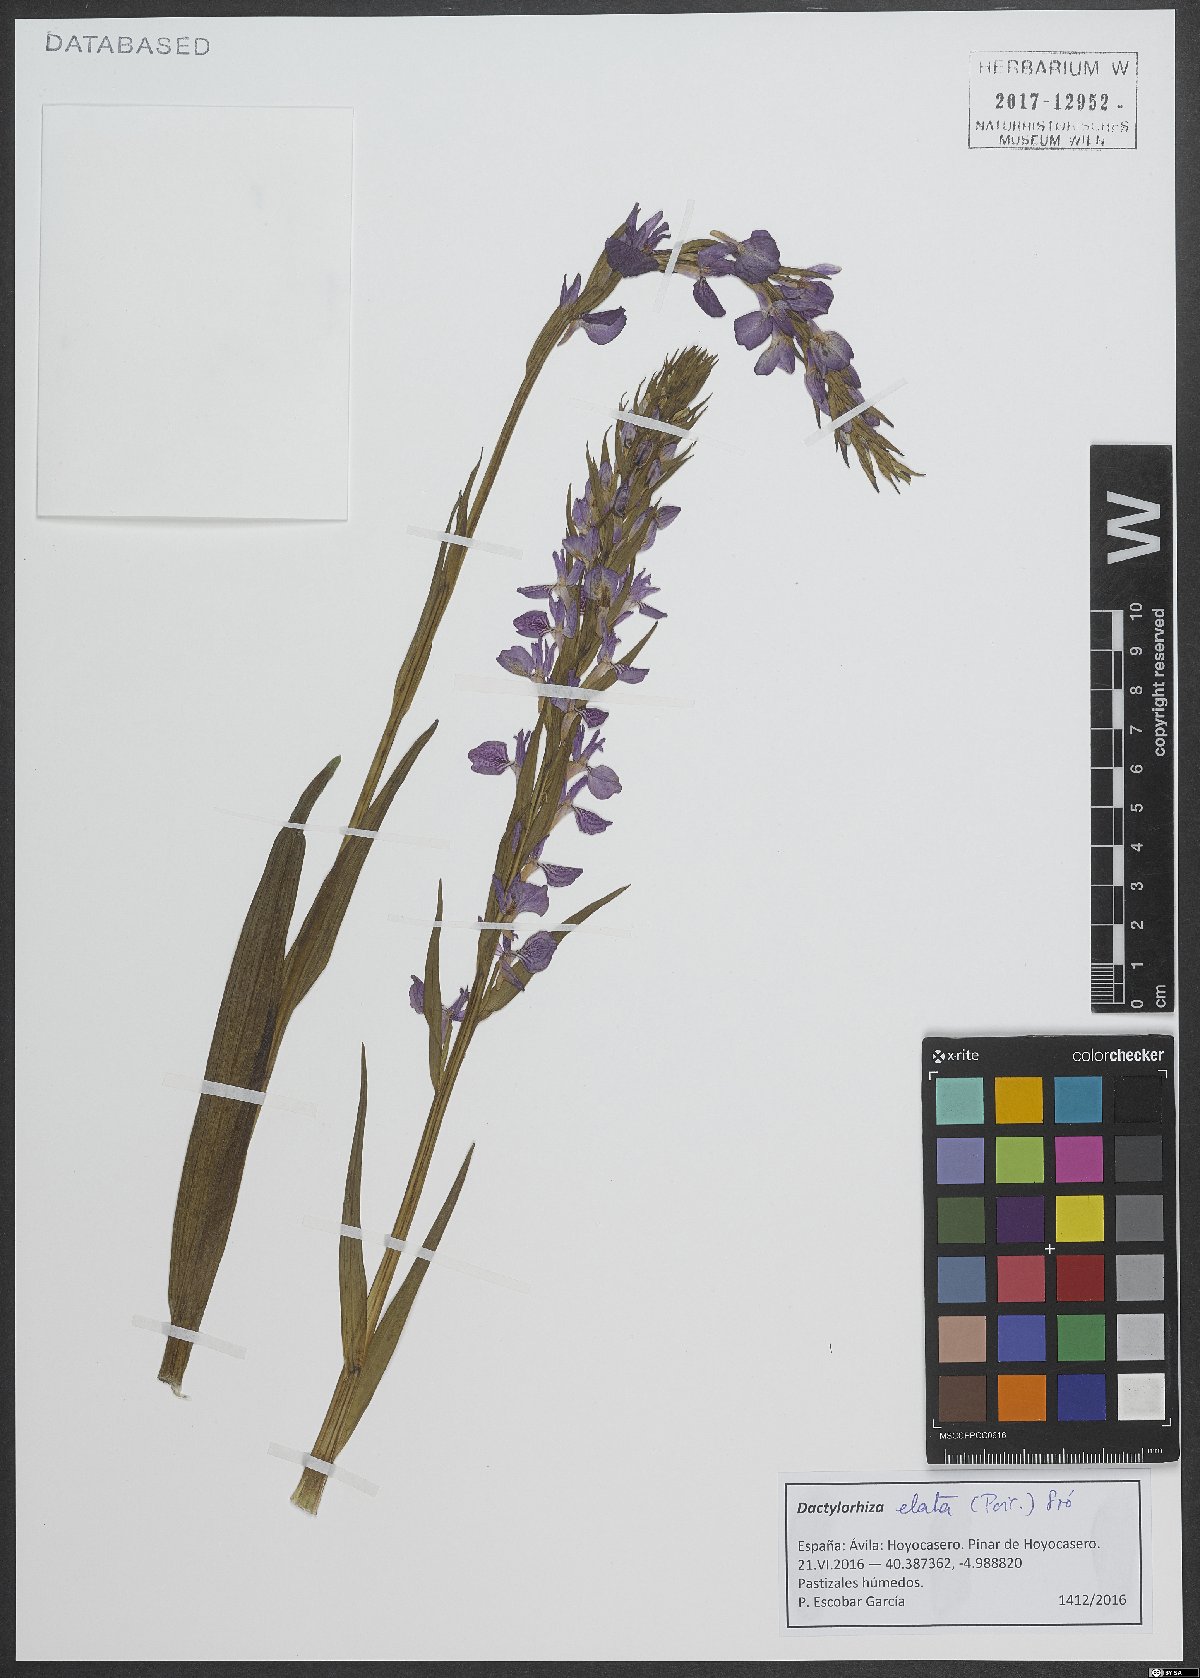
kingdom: Plantae
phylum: Tracheophyta
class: Liliopsida
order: Asparagales
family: Orchidaceae
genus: Dactylorhiza
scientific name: Dactylorhiza elata
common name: Stately dactylorhiza
